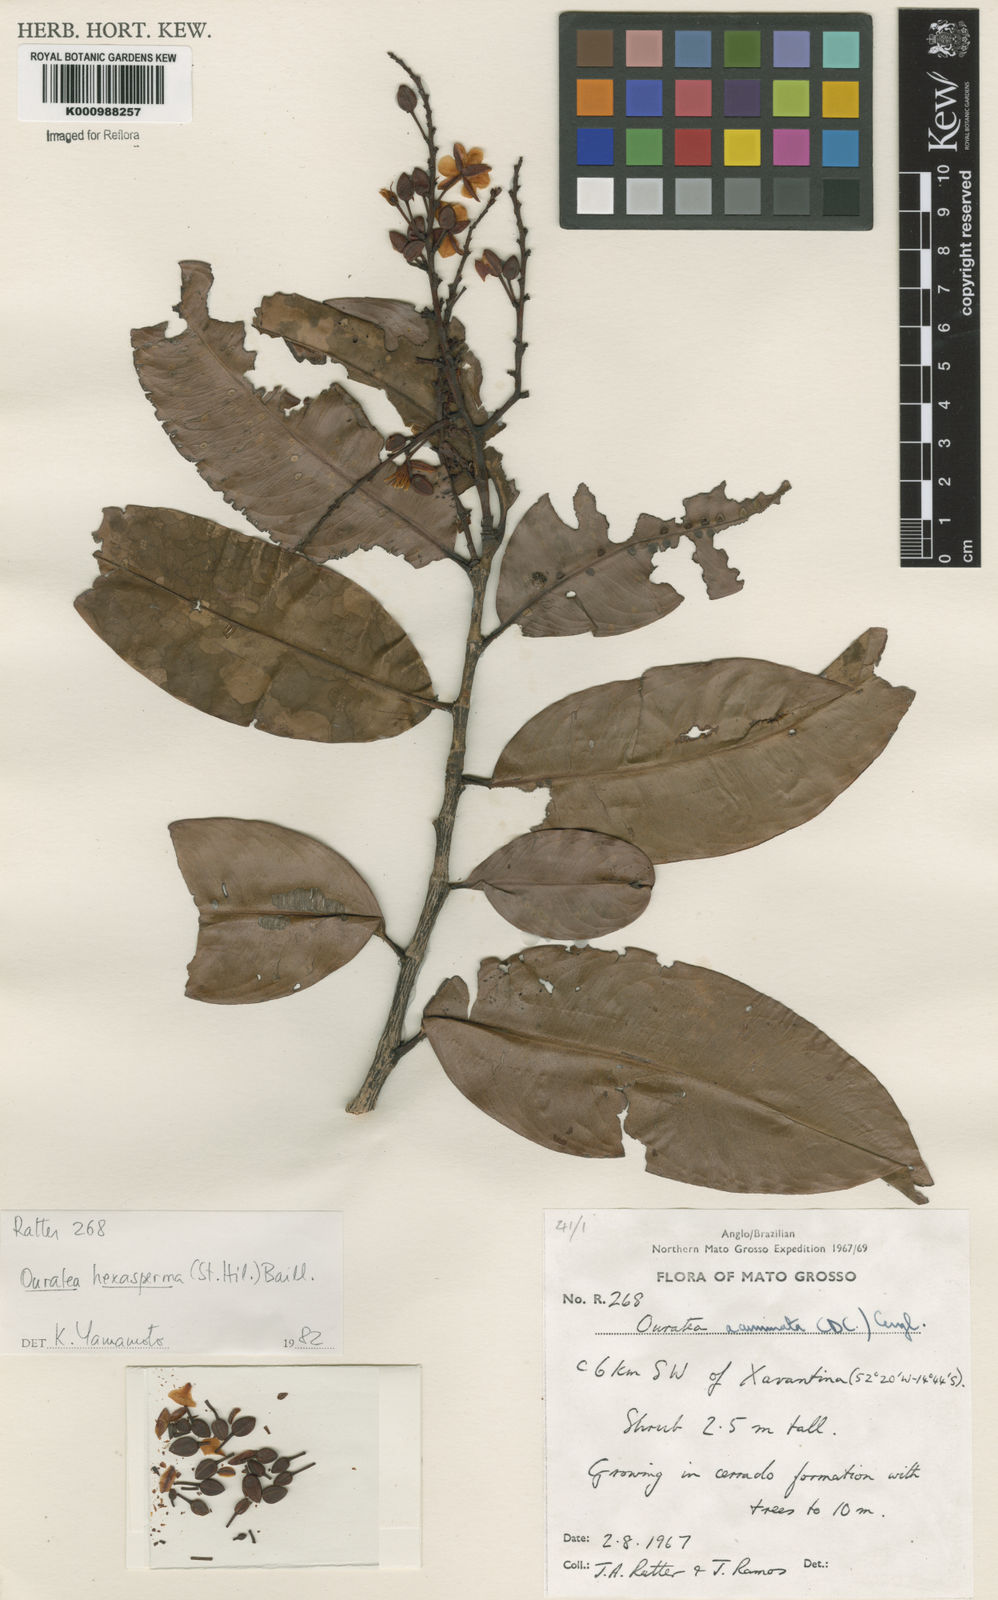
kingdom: Plantae
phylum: Tracheophyta
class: Magnoliopsida
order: Malpighiales
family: Ochnaceae
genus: Ouratea
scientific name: Ouratea hexasperma
